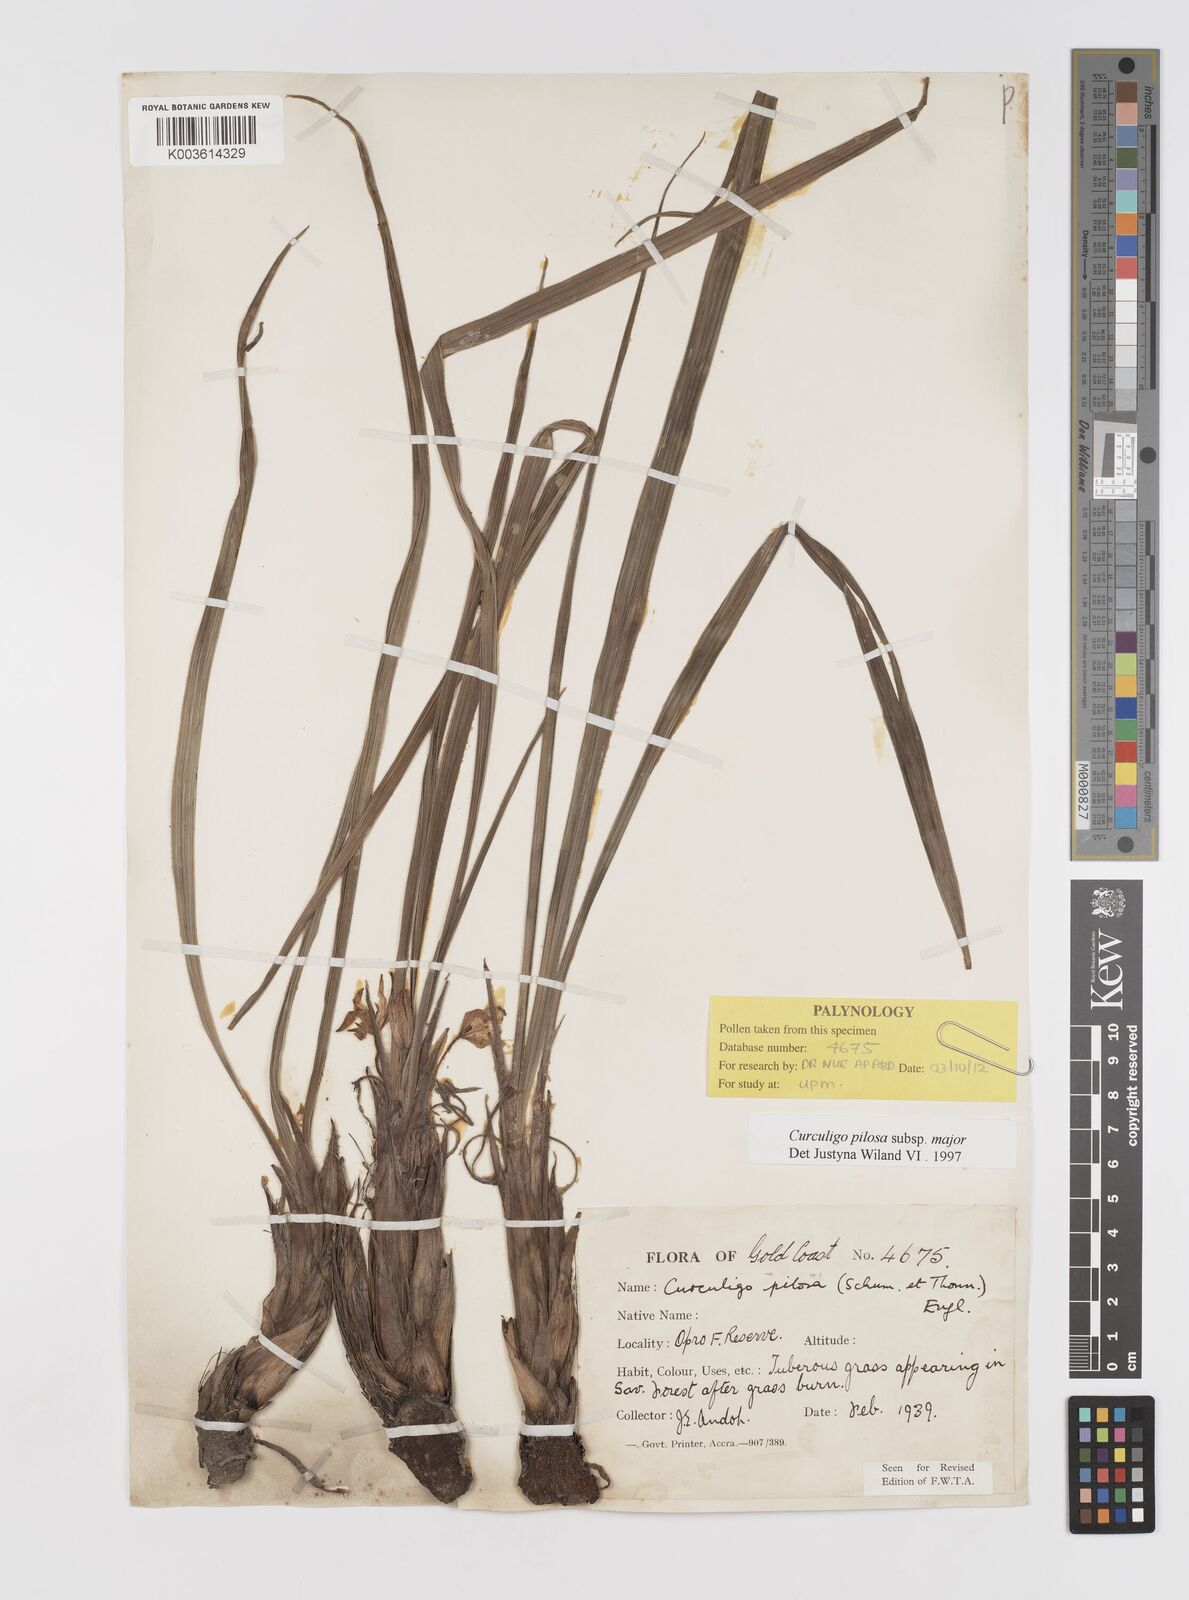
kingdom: Plantae
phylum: Tracheophyta
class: Liliopsida
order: Asparagales
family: Hypoxidaceae
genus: Curculigo
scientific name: Curculigo pilosa
